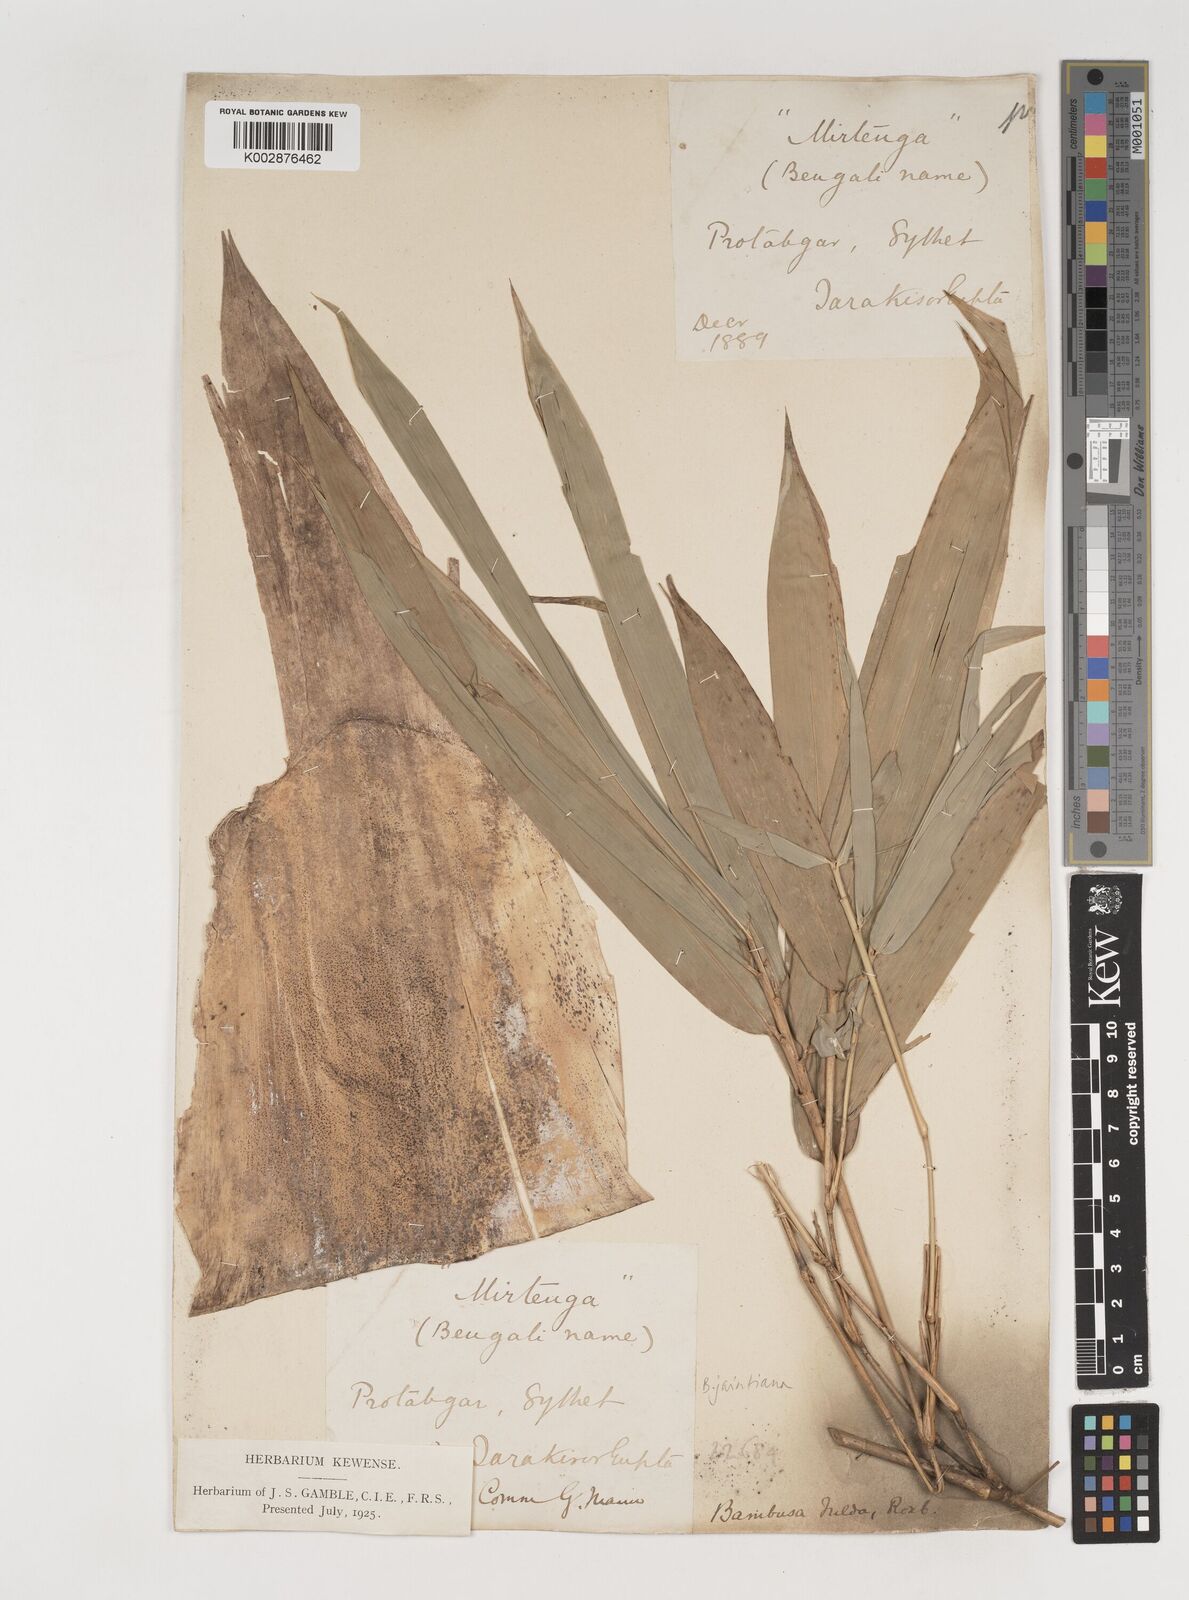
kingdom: Plantae
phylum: Tracheophyta
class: Liliopsida
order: Poales
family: Poaceae
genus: Bambusa
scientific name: Bambusa jaintiana
